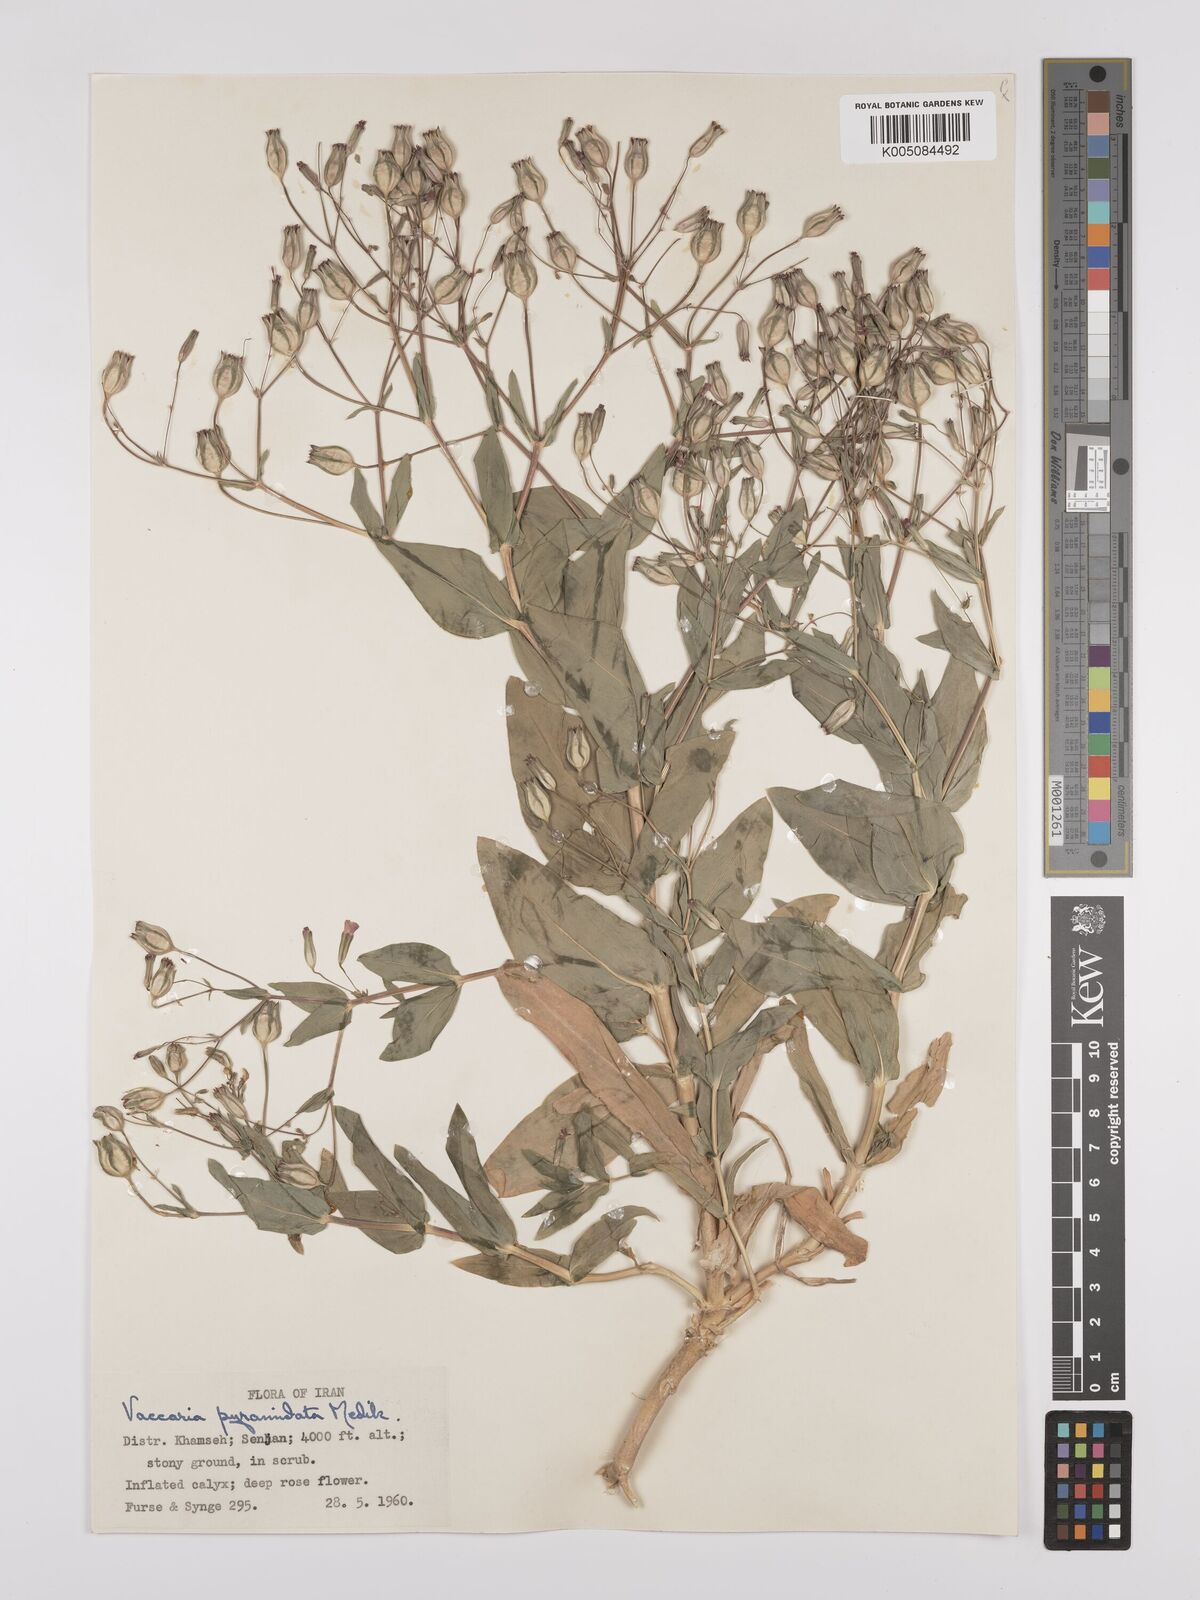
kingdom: Plantae
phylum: Tracheophyta
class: Magnoliopsida
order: Caryophyllales
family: Caryophyllaceae
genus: Gypsophila
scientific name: Gypsophila vaccaria
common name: Cow soapwort
